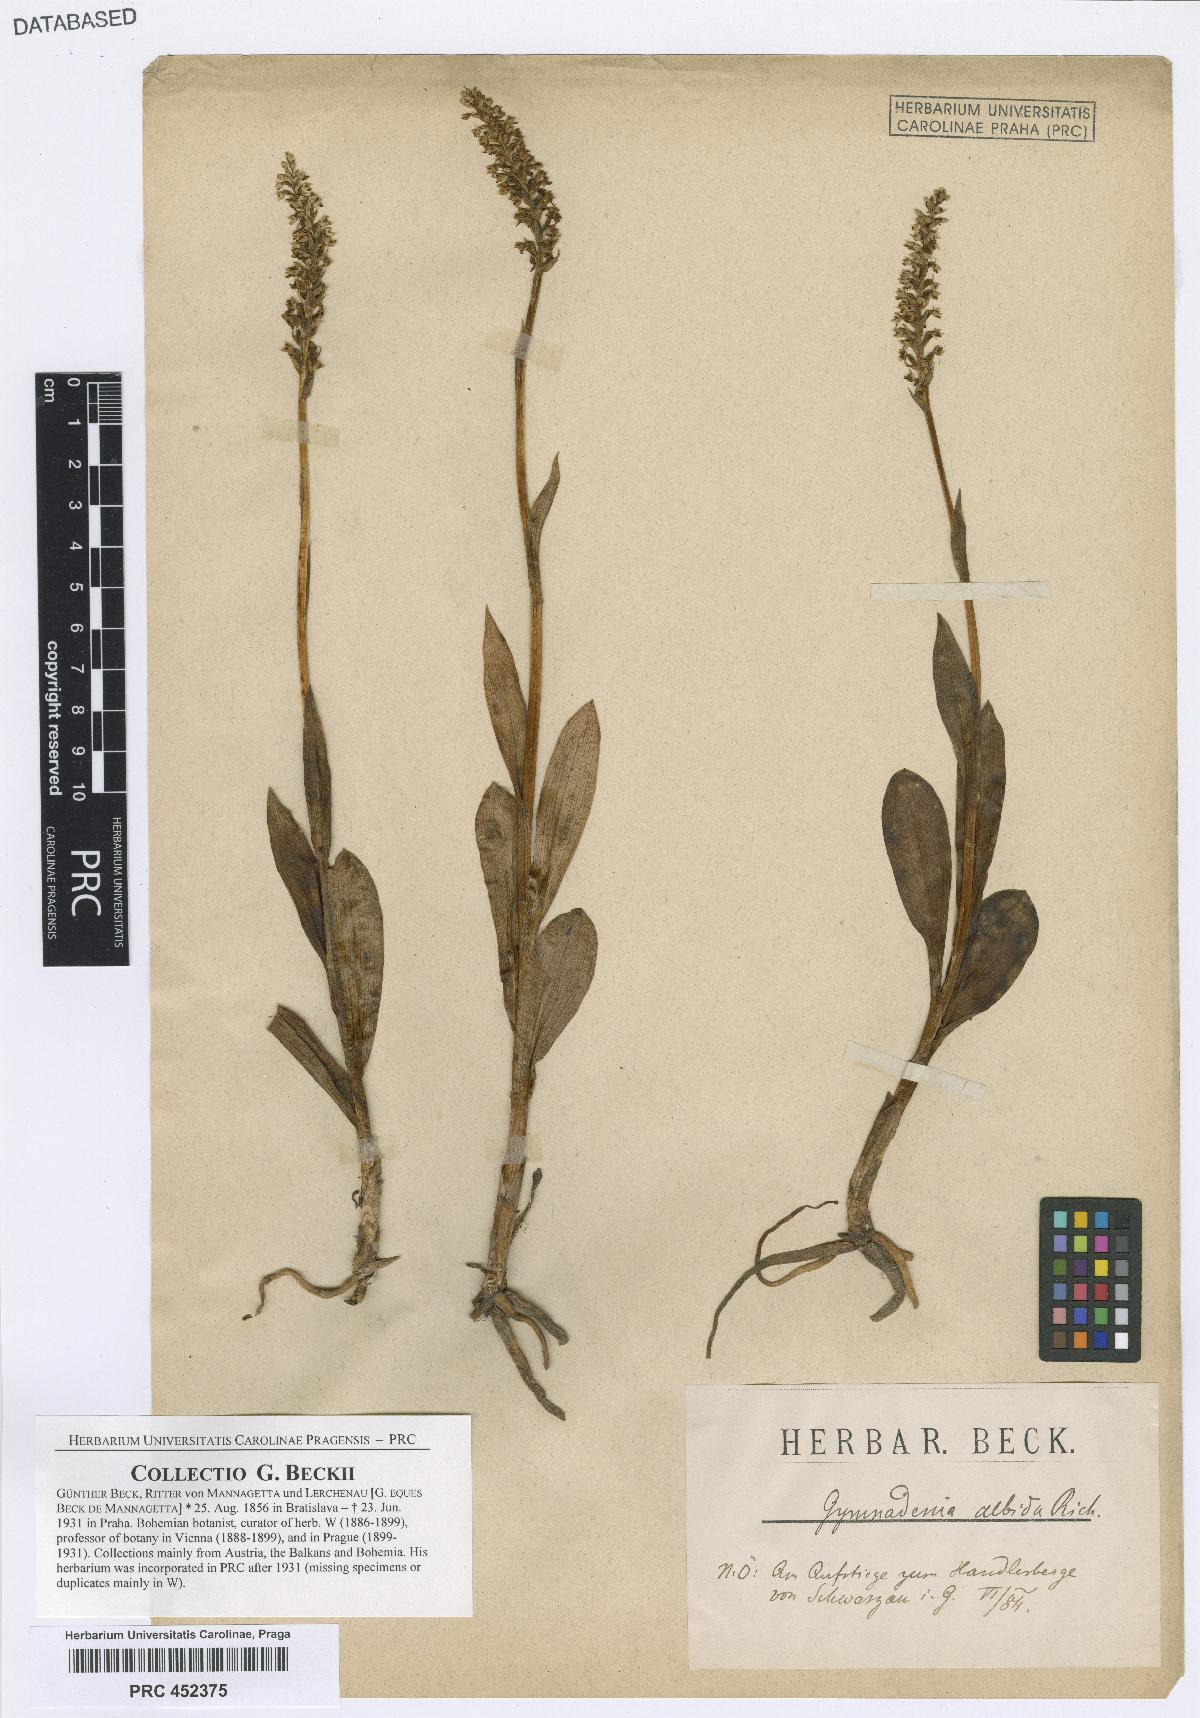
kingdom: Plantae
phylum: Tracheophyta
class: Liliopsida
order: Asparagales
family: Orchidaceae
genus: Pseudorchis
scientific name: Pseudorchis albida
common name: Small-white orchid
